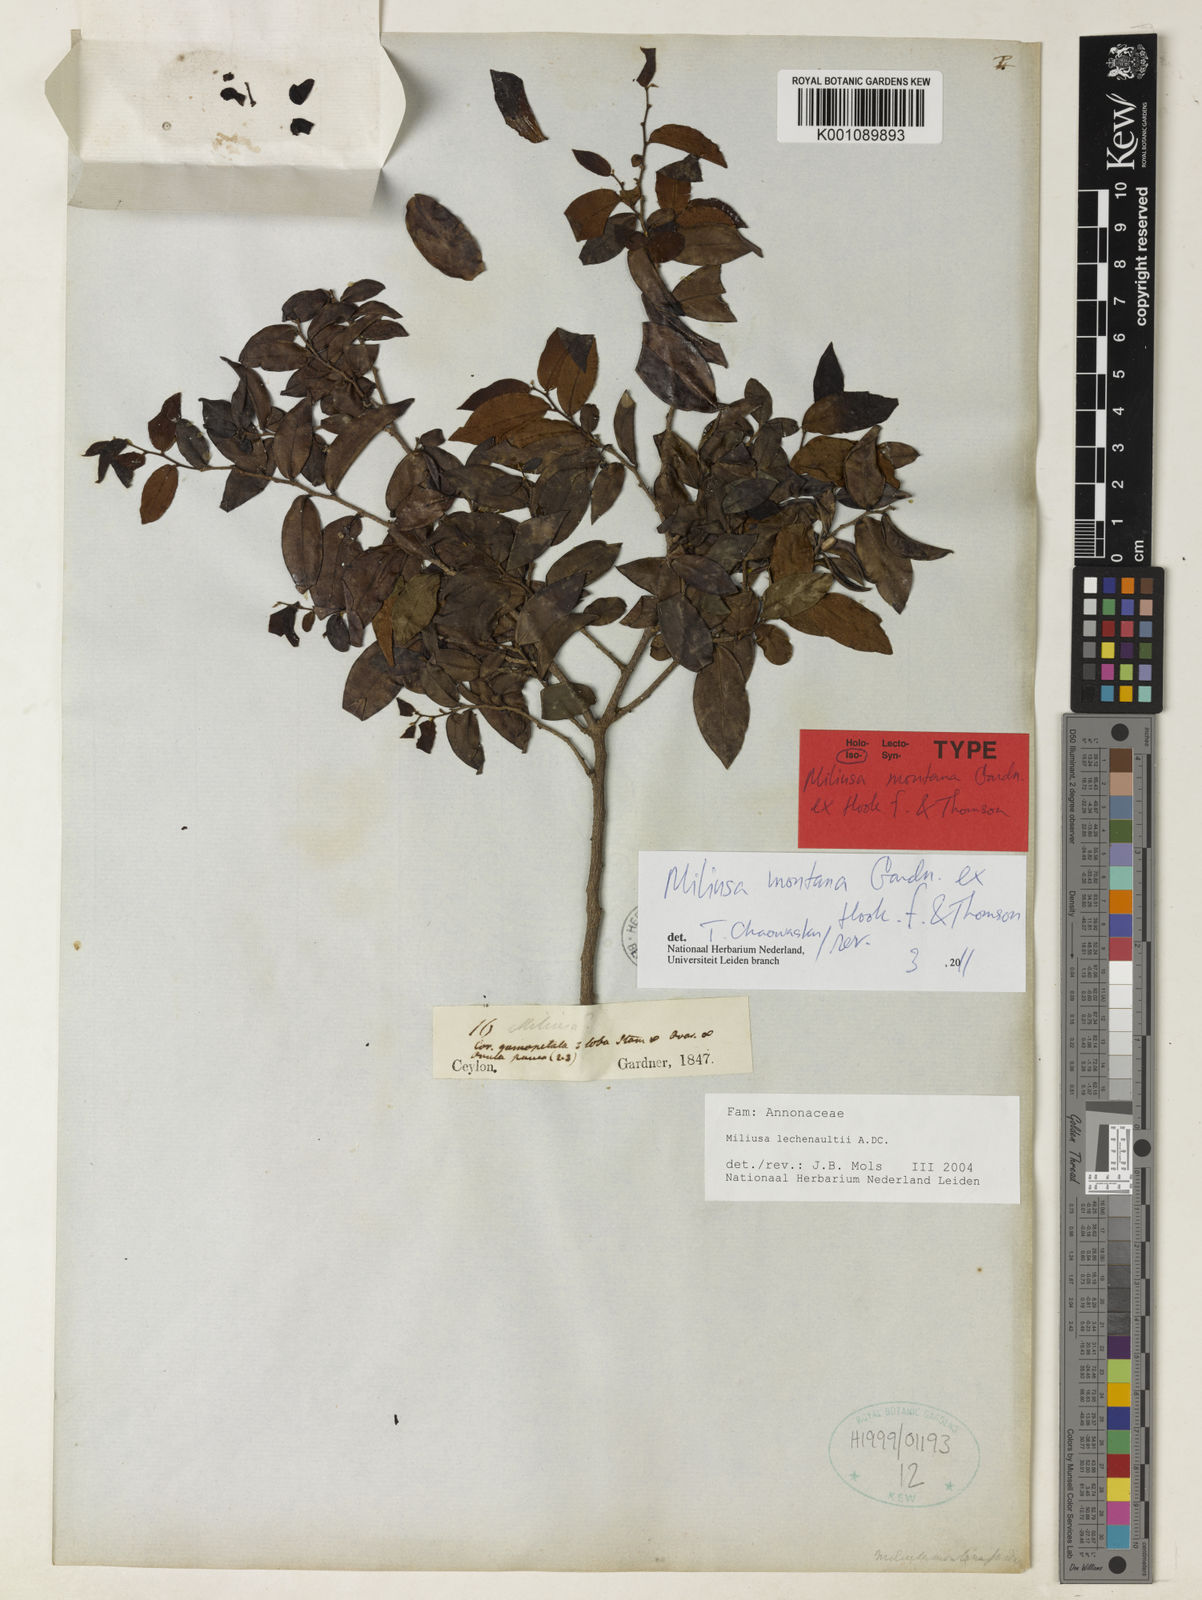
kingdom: Plantae
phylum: Tracheophyta
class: Magnoliopsida
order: Magnoliales
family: Annonaceae
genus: Miliusa
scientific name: Miliusa montana
